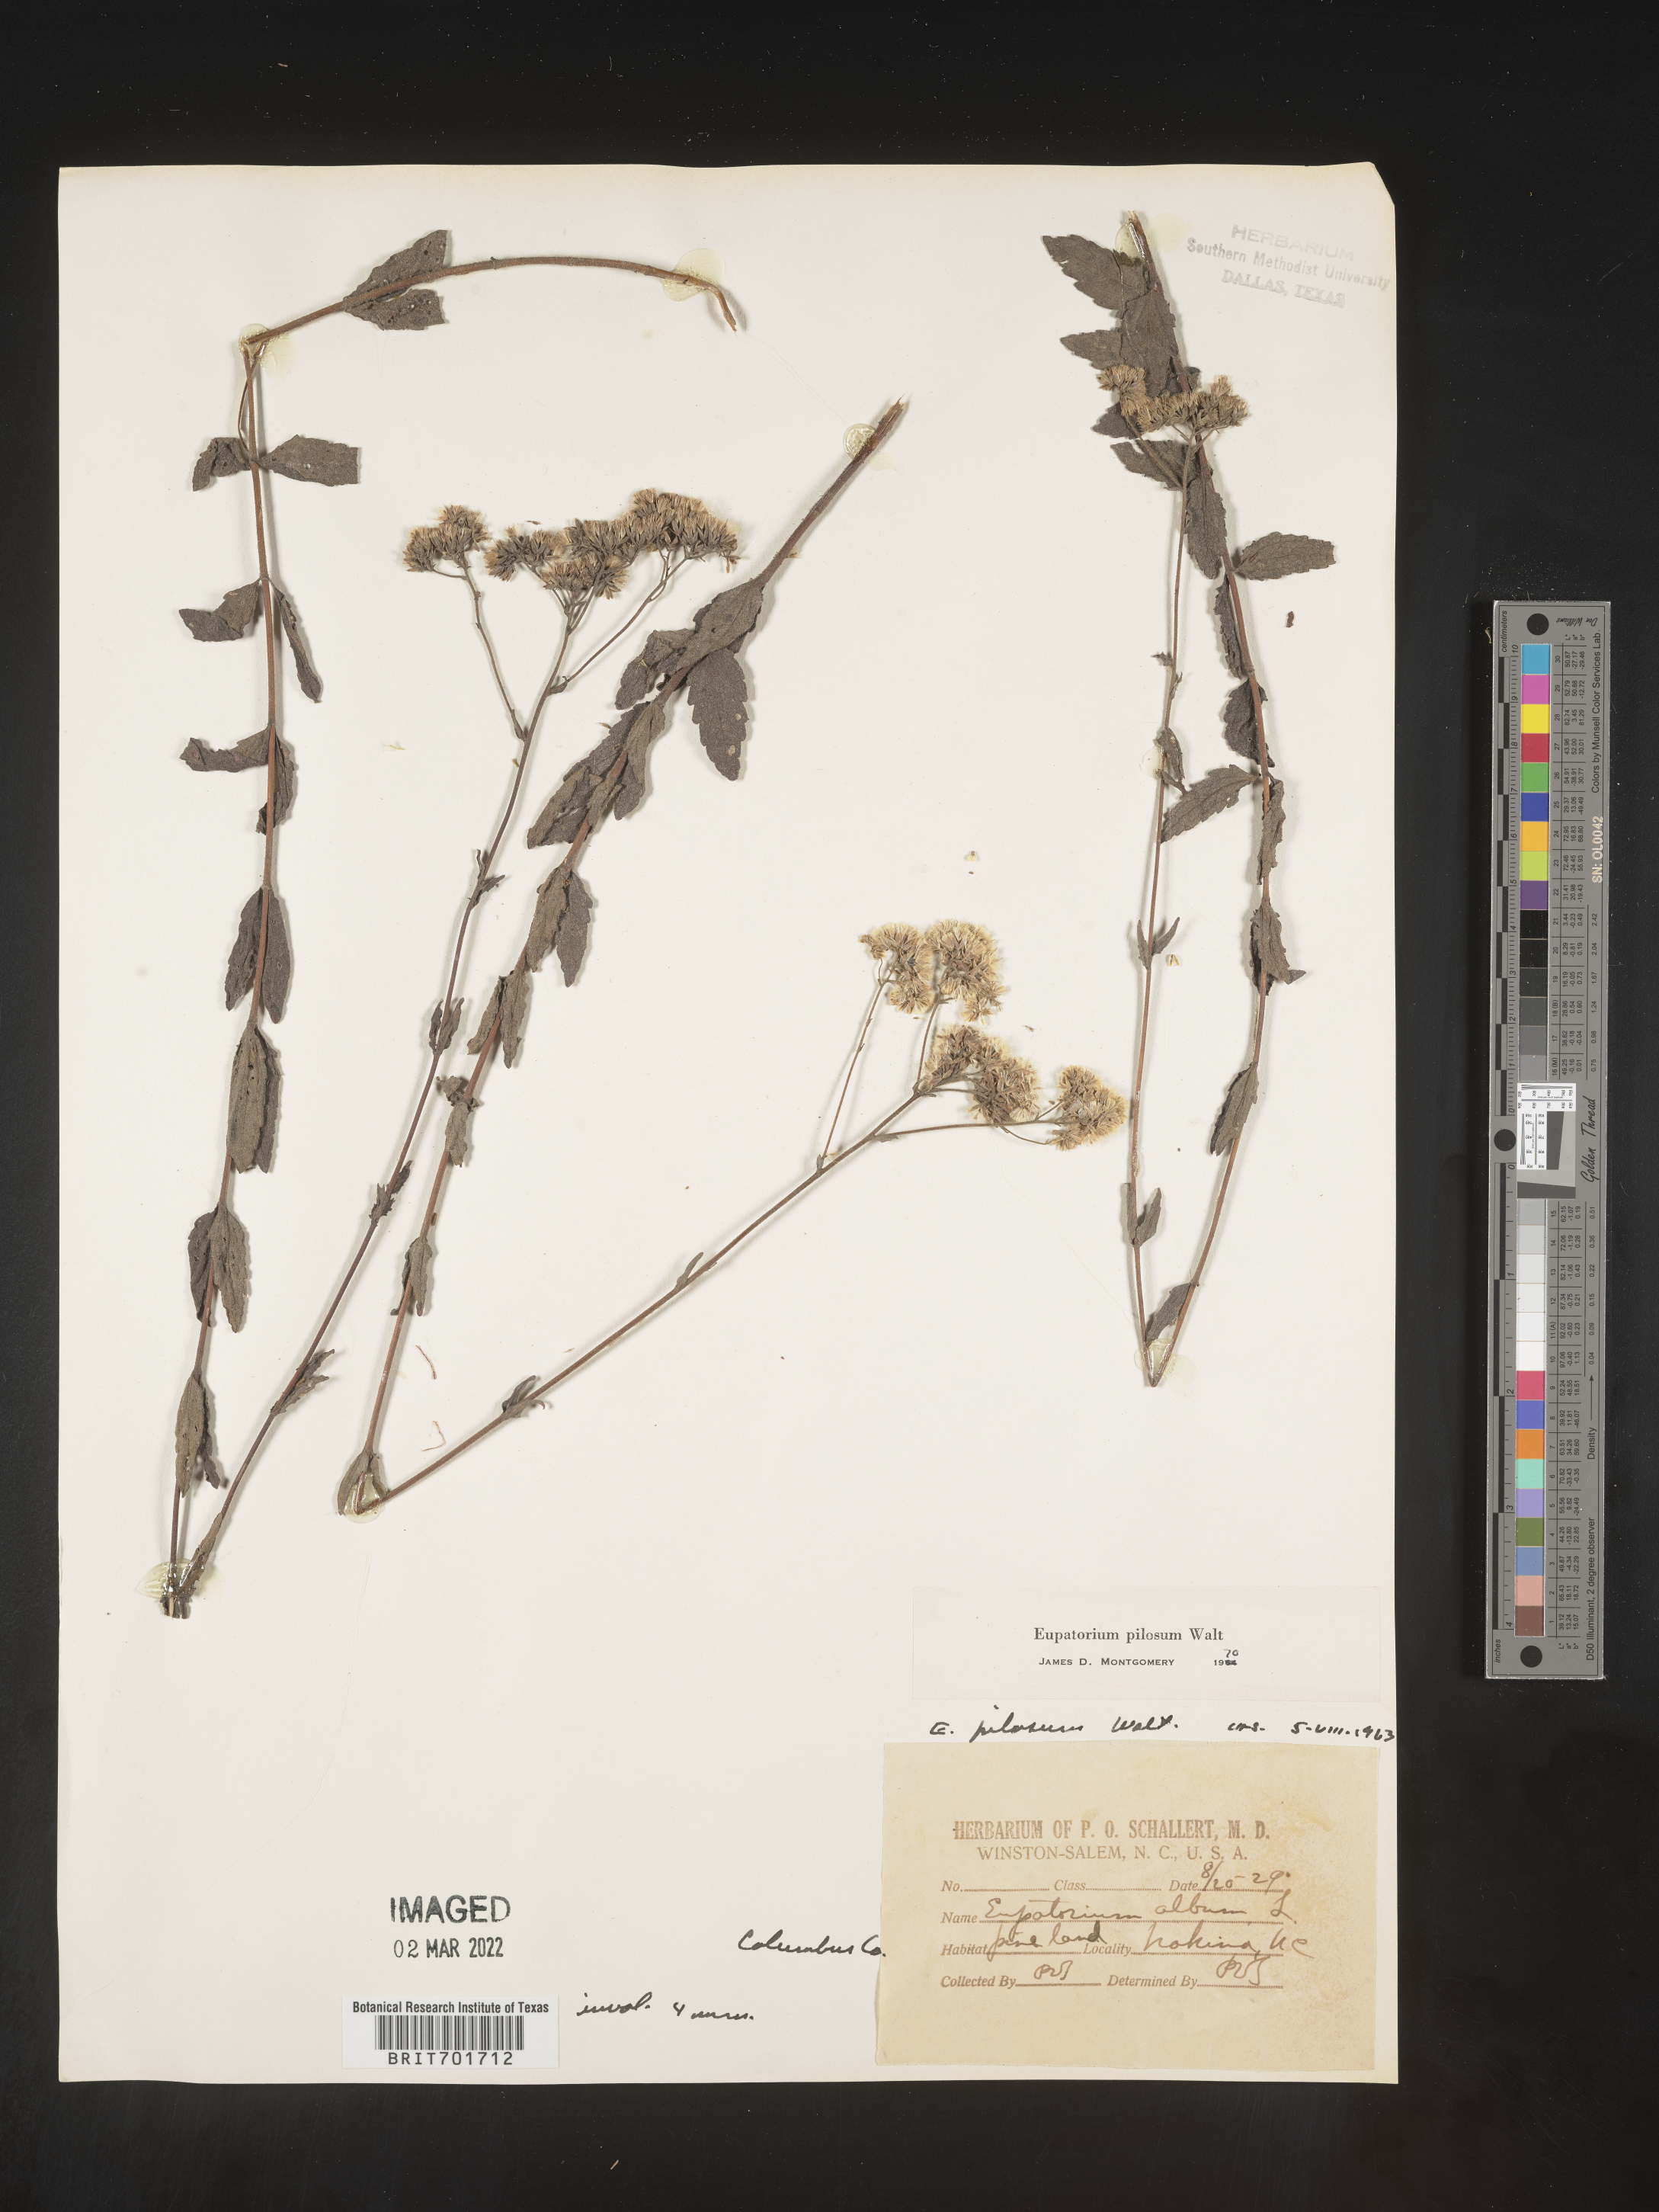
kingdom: Plantae
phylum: Tracheophyta
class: Magnoliopsida
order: Asterales
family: Asteraceae
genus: Eupatorium
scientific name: Eupatorium pilosum
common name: Rough boneset
